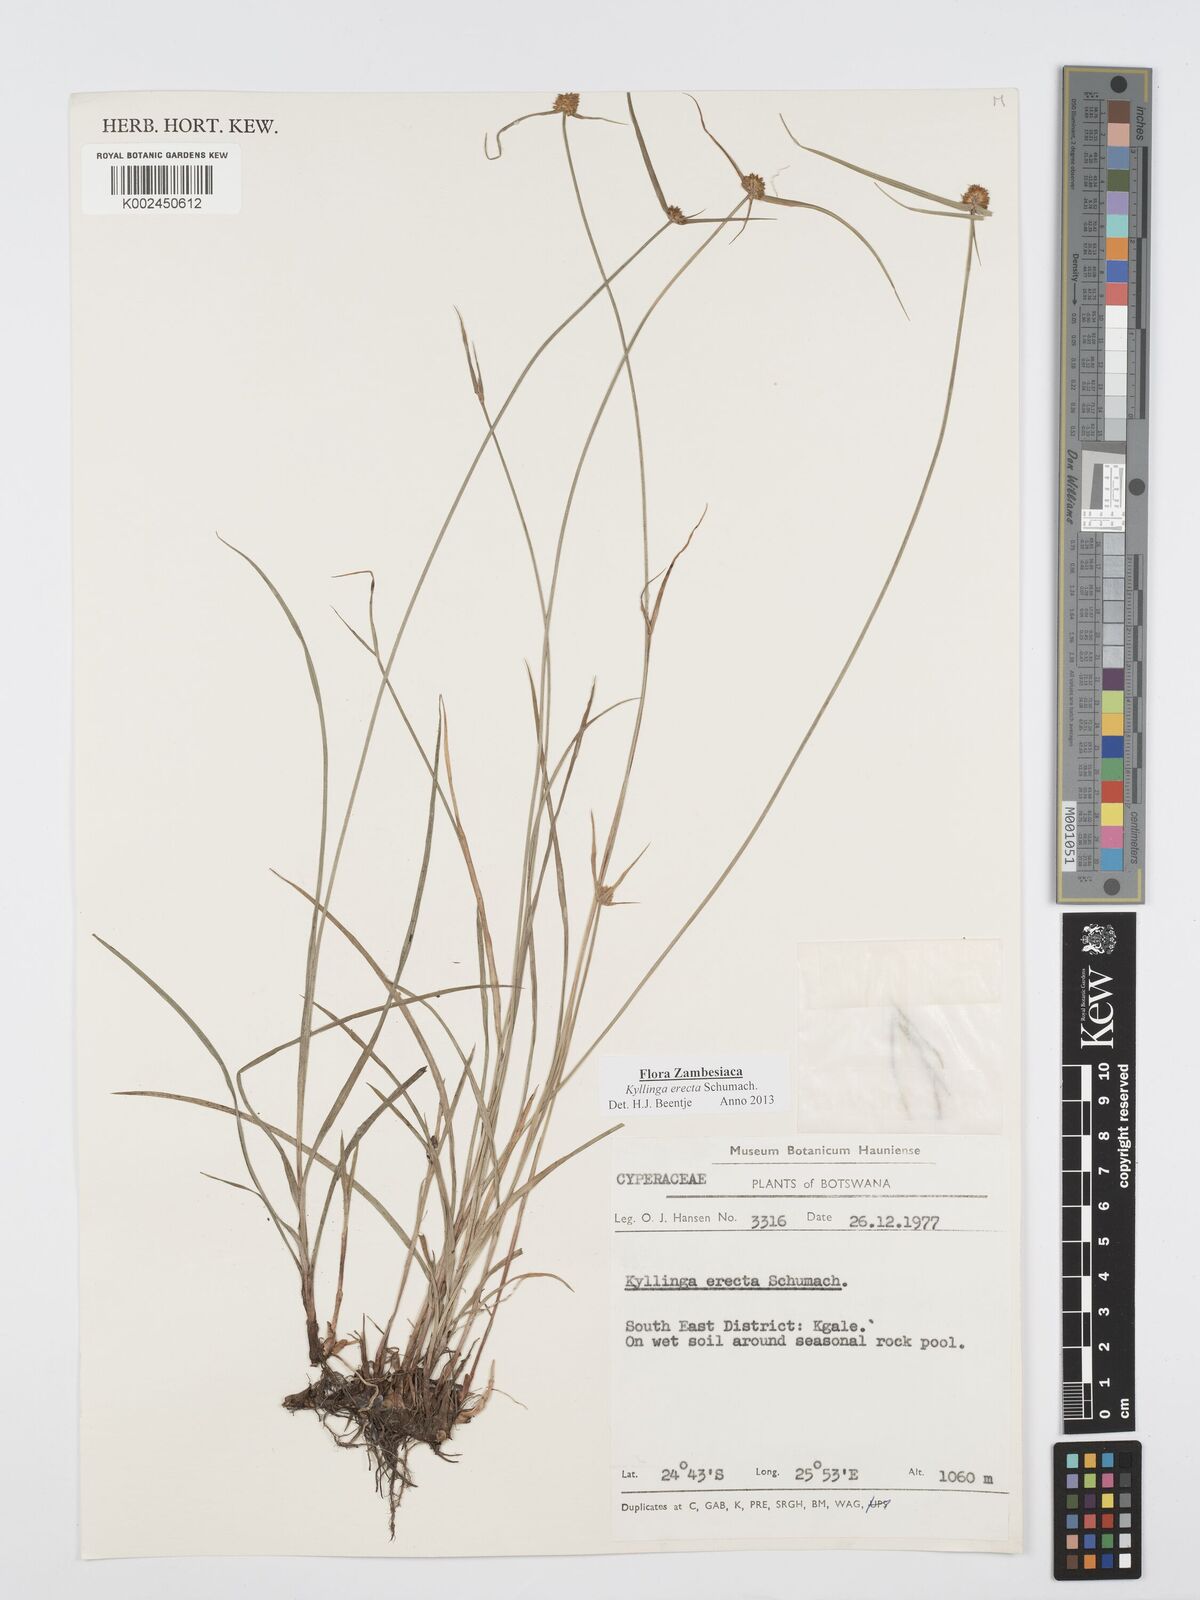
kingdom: Plantae
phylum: Tracheophyta
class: Liliopsida
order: Poales
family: Cyperaceae
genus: Cyperus
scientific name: Cyperus erectus
